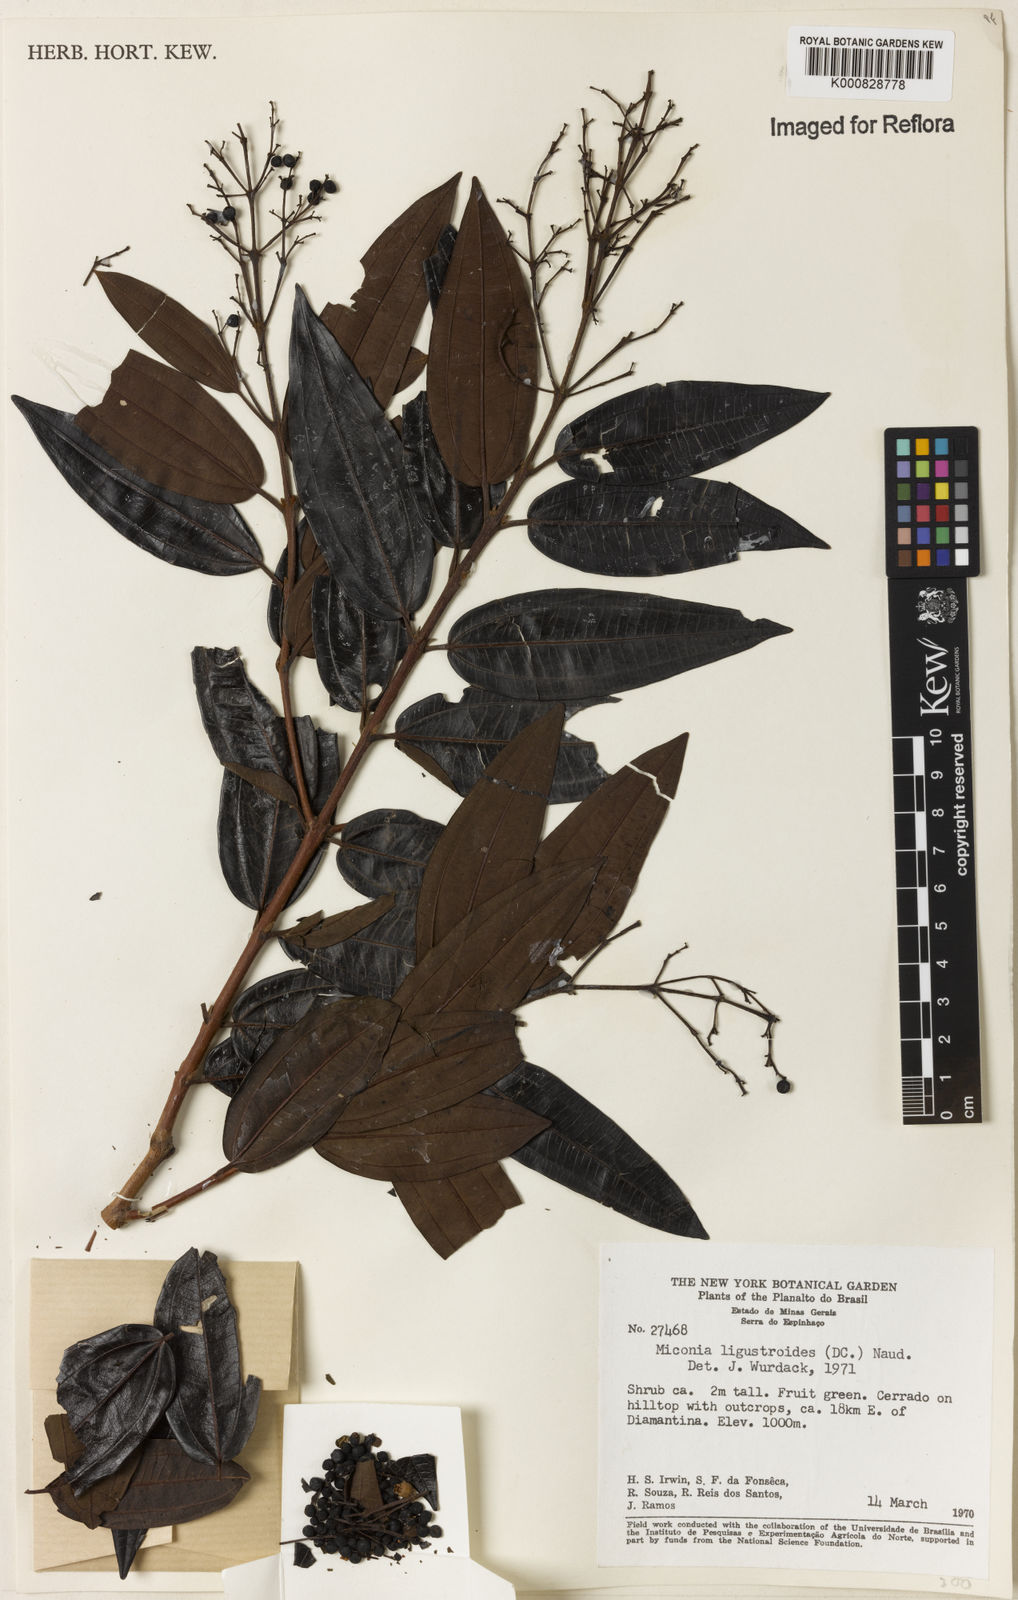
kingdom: Plantae
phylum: Tracheophyta
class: Magnoliopsida
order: Myrtales
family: Melastomataceae
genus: Miconia
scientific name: Miconia ligustroides
